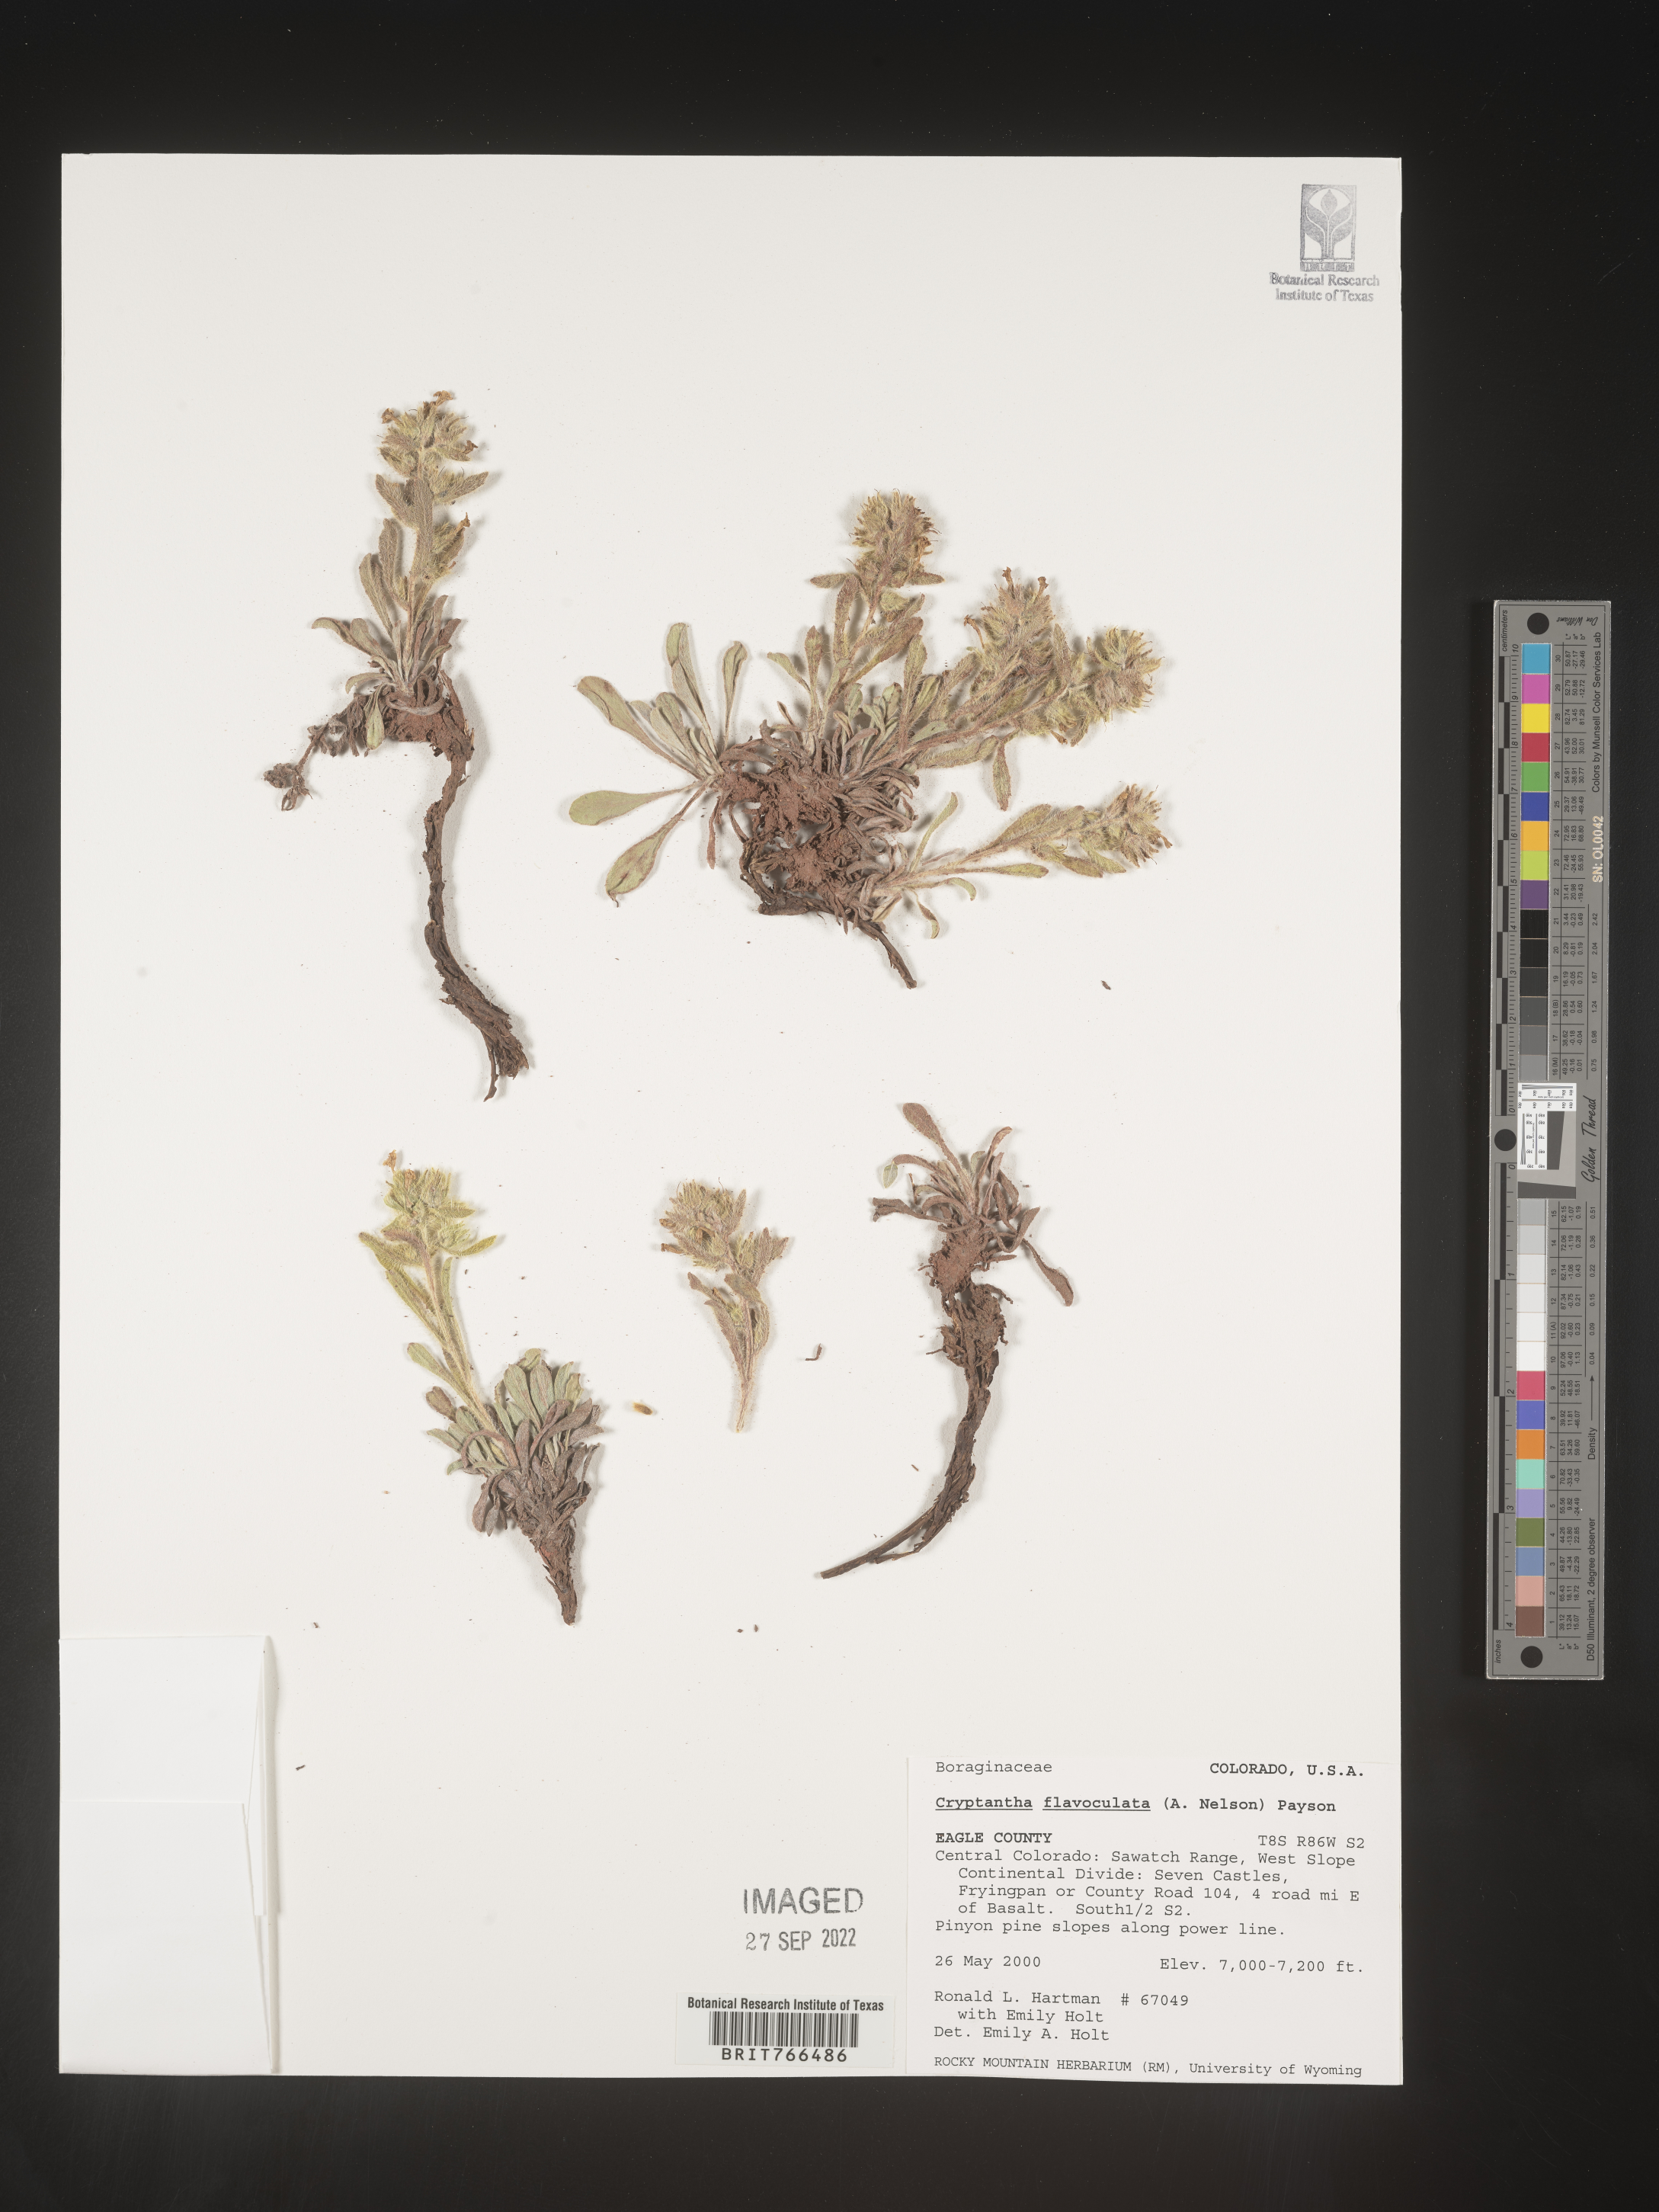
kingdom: Plantae
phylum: Tracheophyta
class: Magnoliopsida
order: Boraginales
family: Boraginaceae
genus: Oreocarya
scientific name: Oreocarya flavoculata
